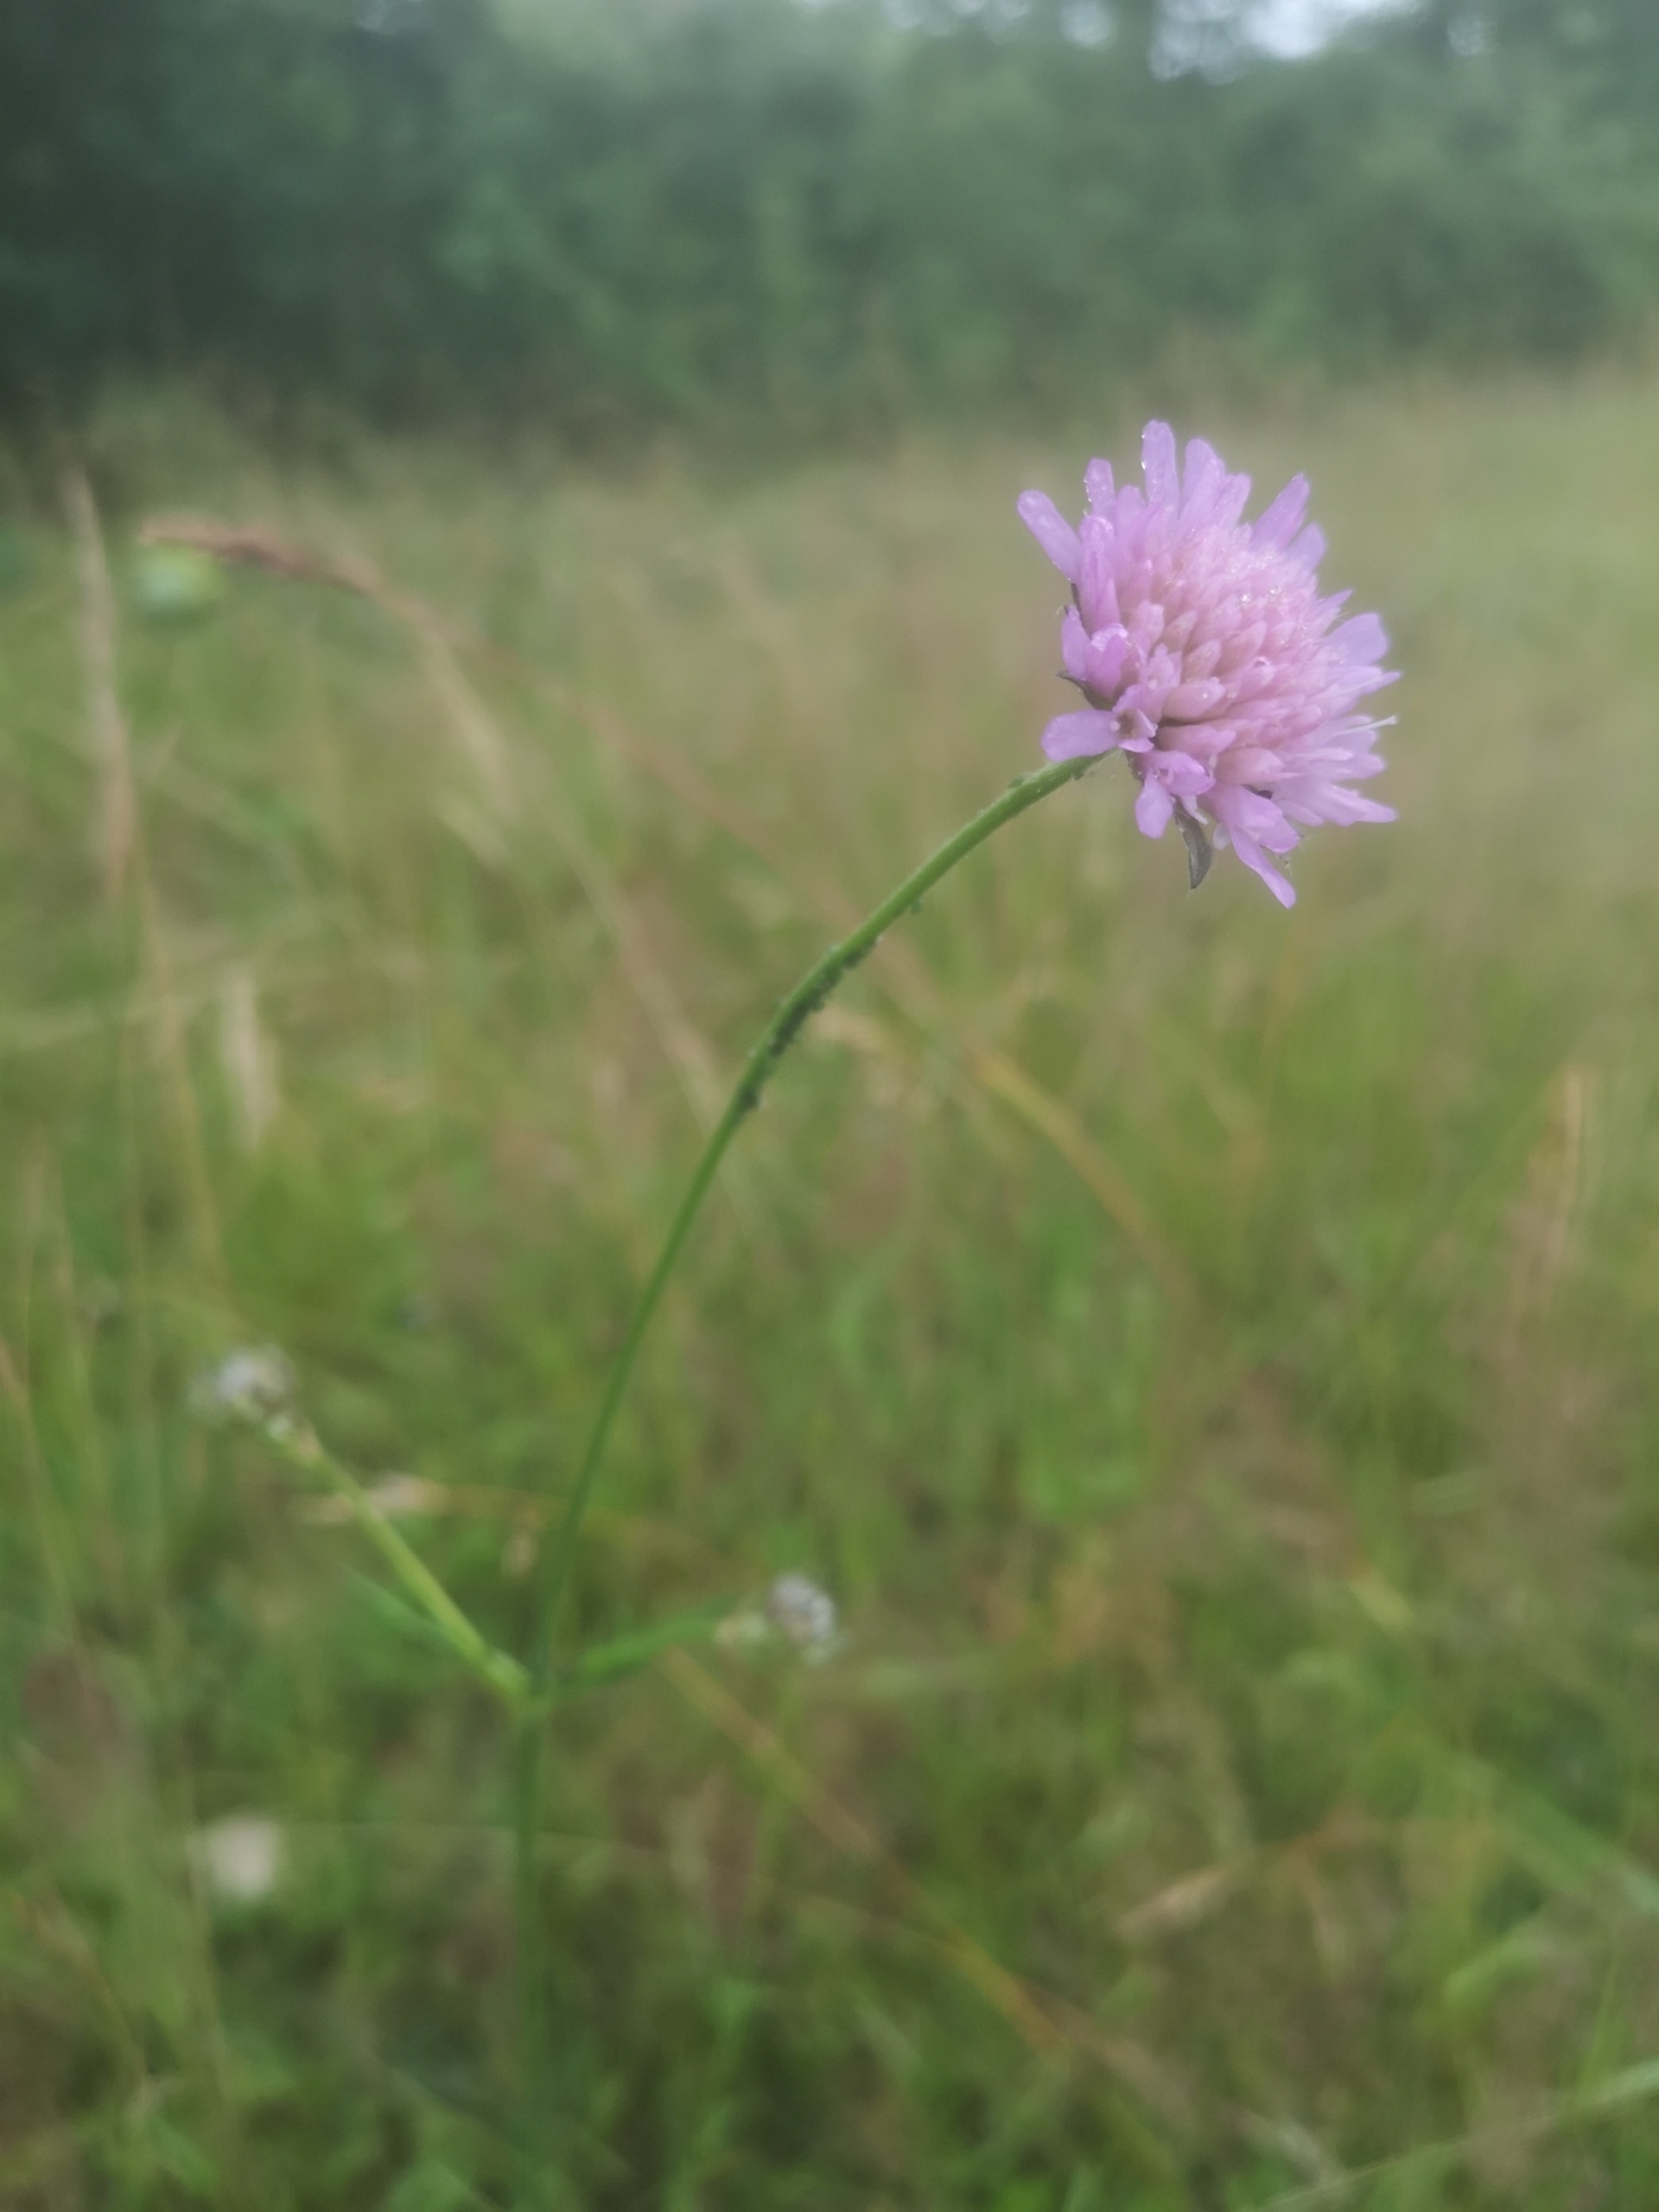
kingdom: Plantae
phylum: Tracheophyta
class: Magnoliopsida
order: Dipsacales
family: Caprifoliaceae
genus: Knautia
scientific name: Knautia arvensis
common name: Blåhat
